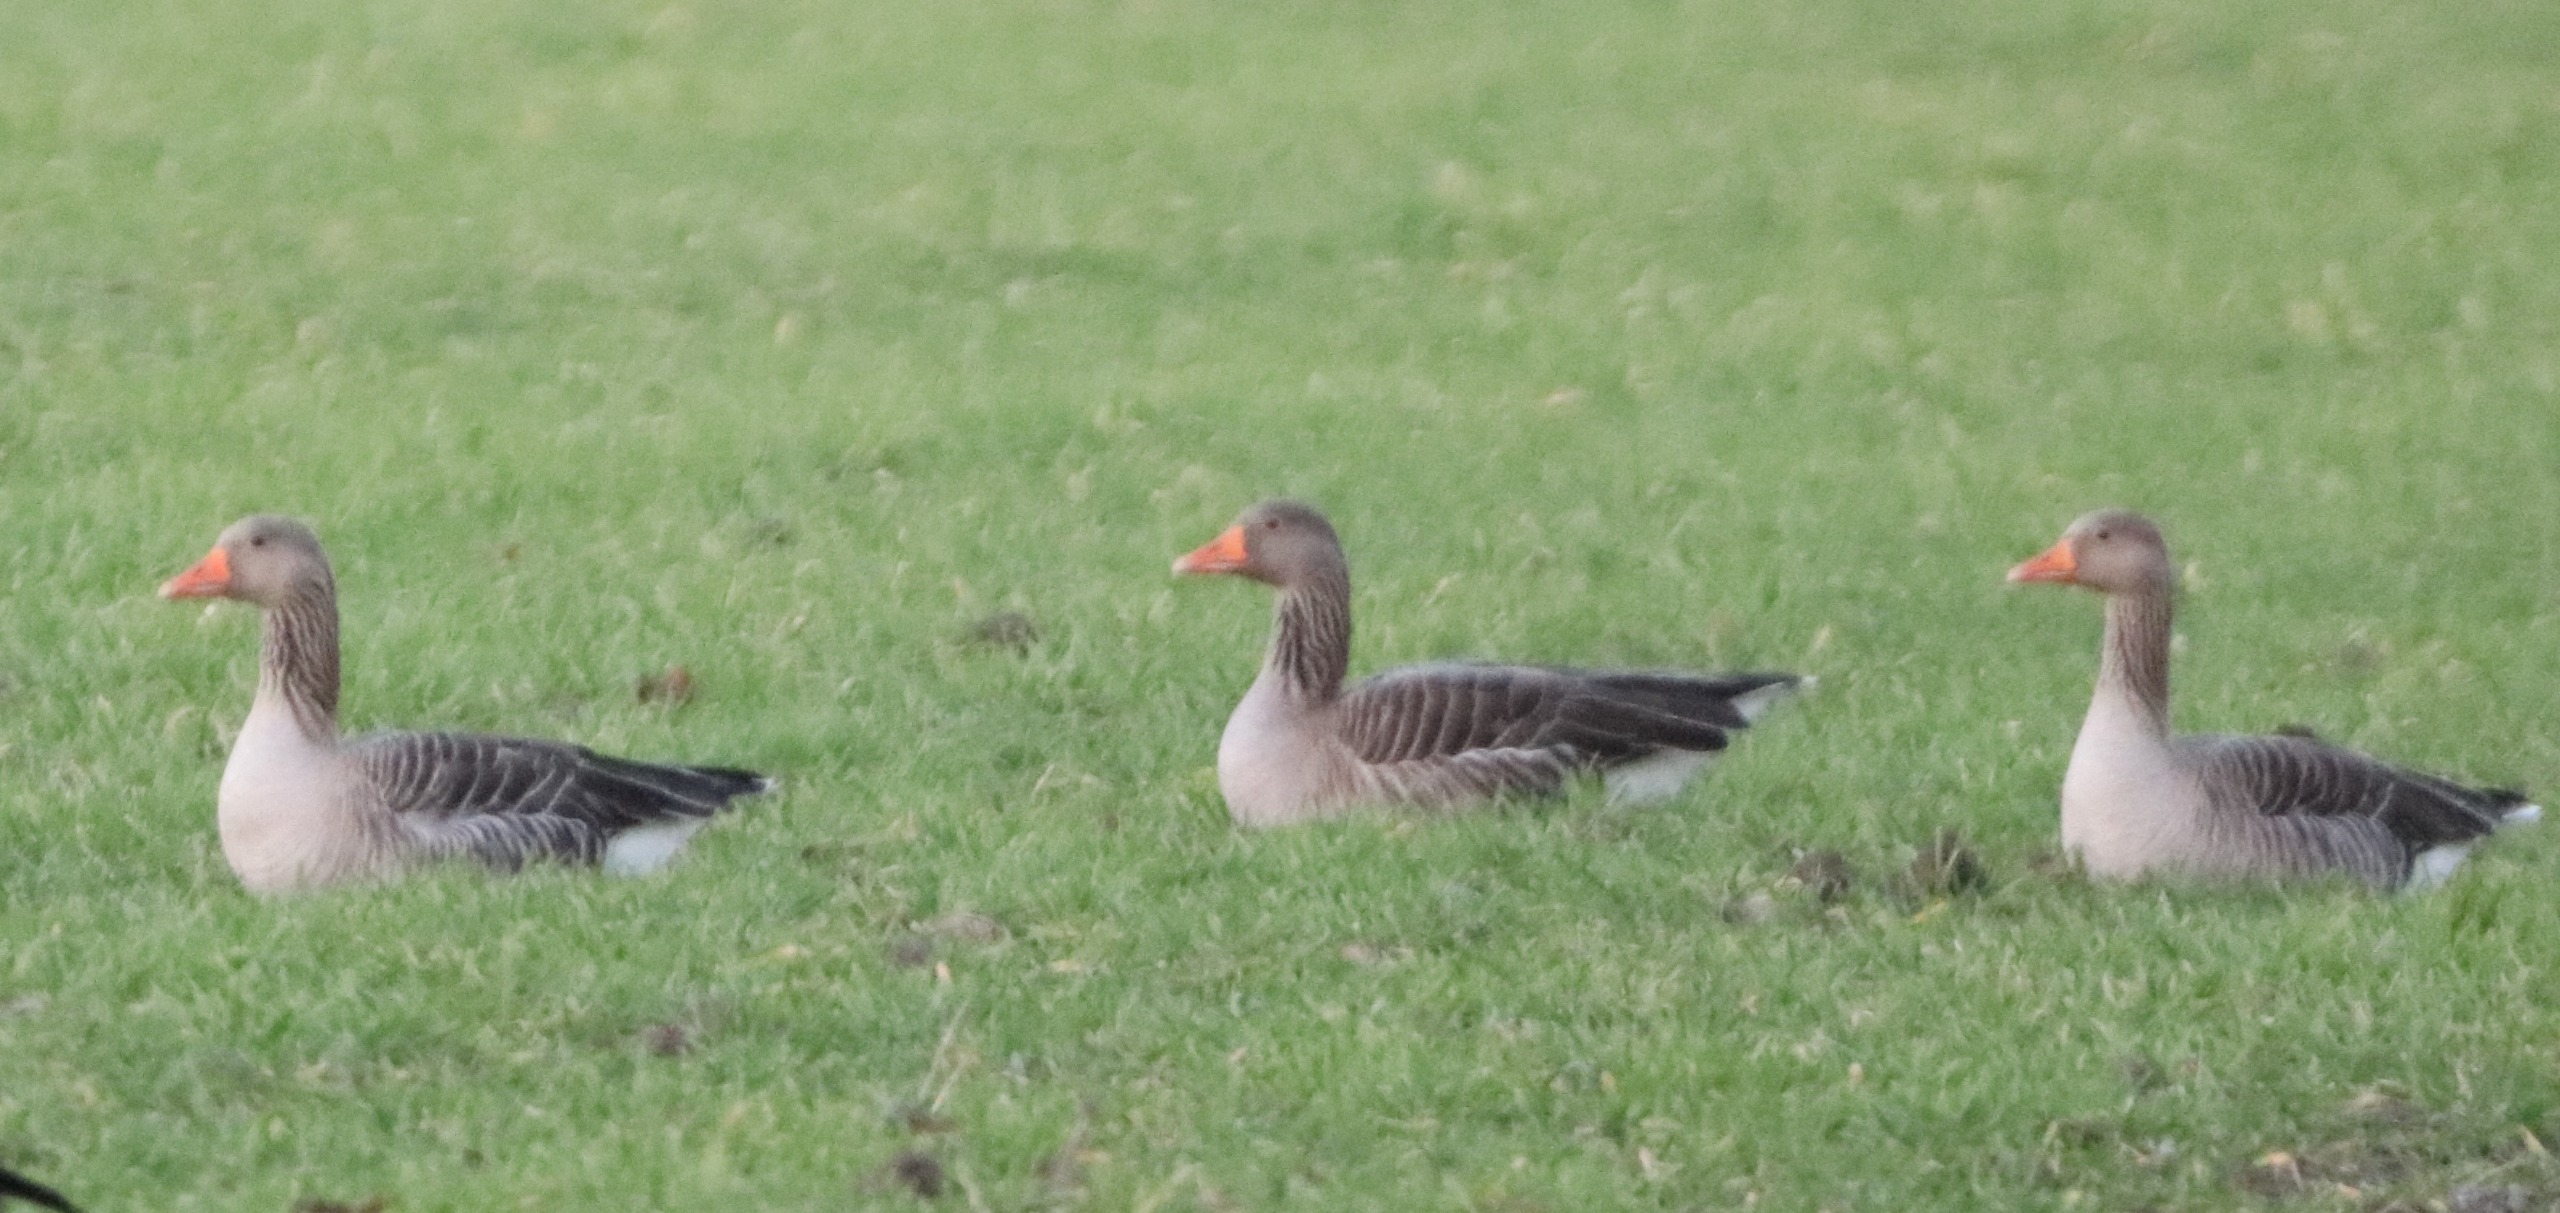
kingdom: Animalia
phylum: Chordata
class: Aves
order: Anseriformes
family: Anatidae
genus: Anser
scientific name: Anser anser
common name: Grågås
